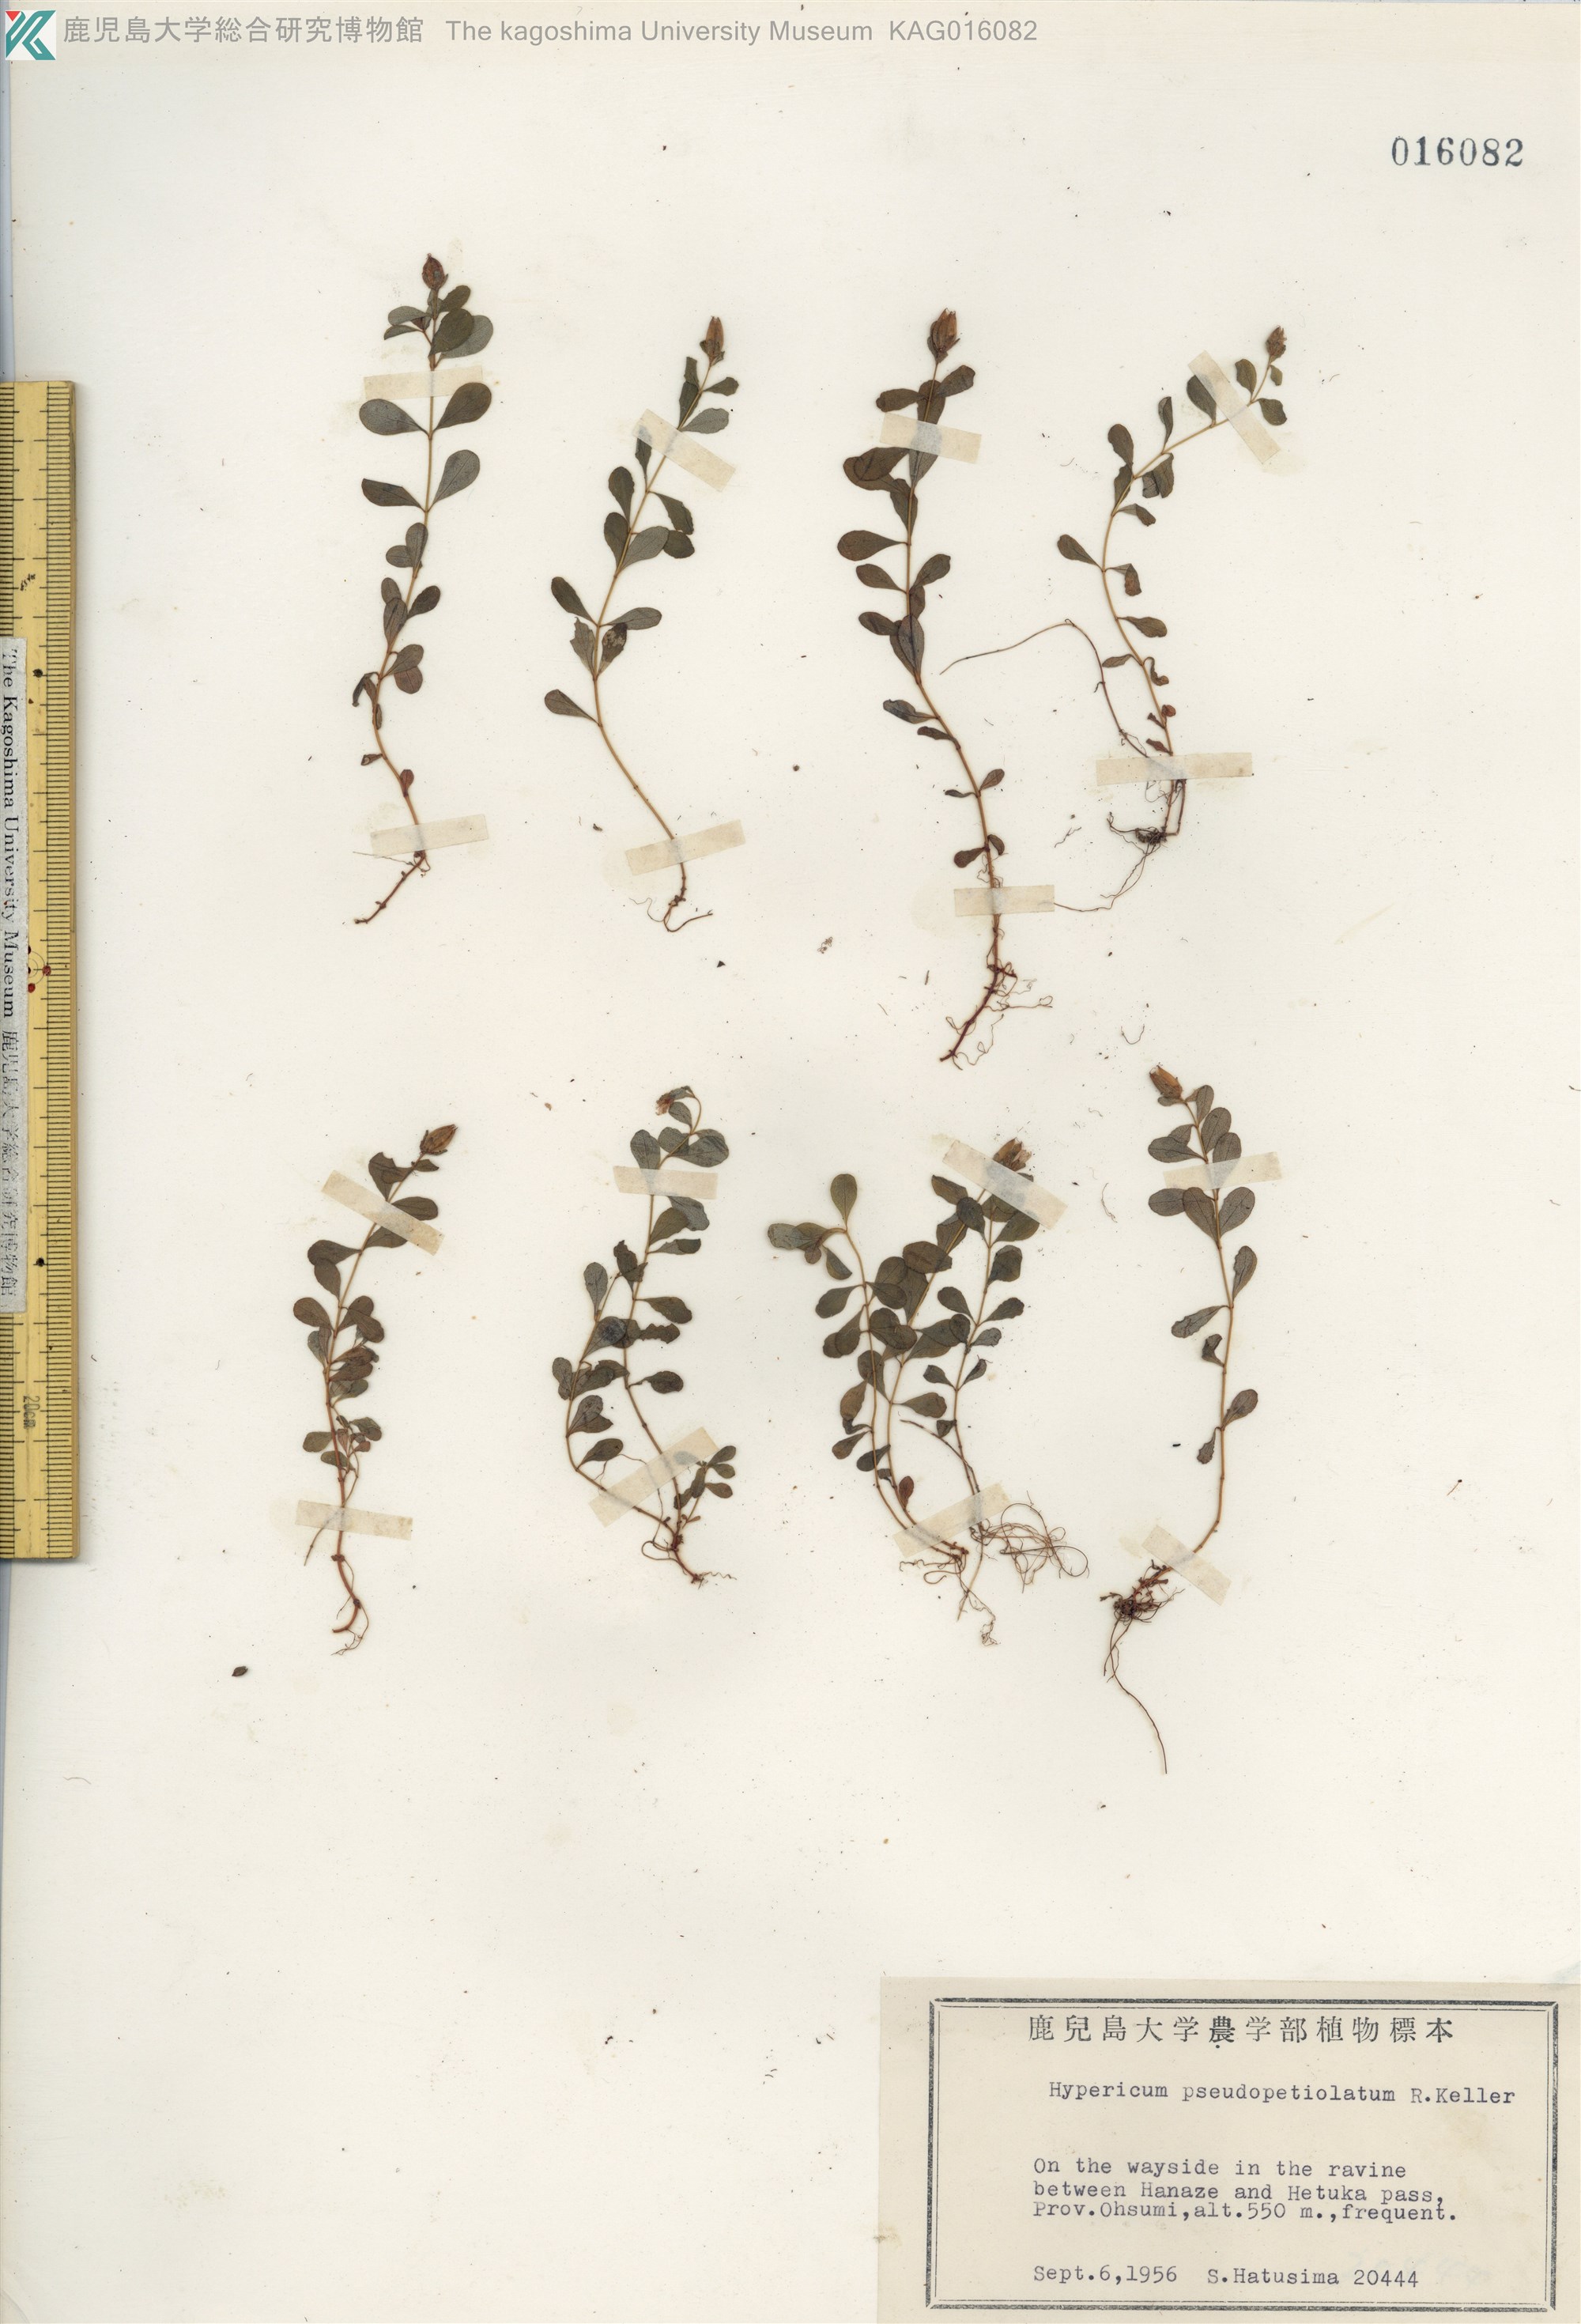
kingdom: Plantae
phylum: Tracheophyta
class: Magnoliopsida
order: Malpighiales
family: Hypericaceae
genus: Hypericum
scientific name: Hypericum pseudopetiolatum
